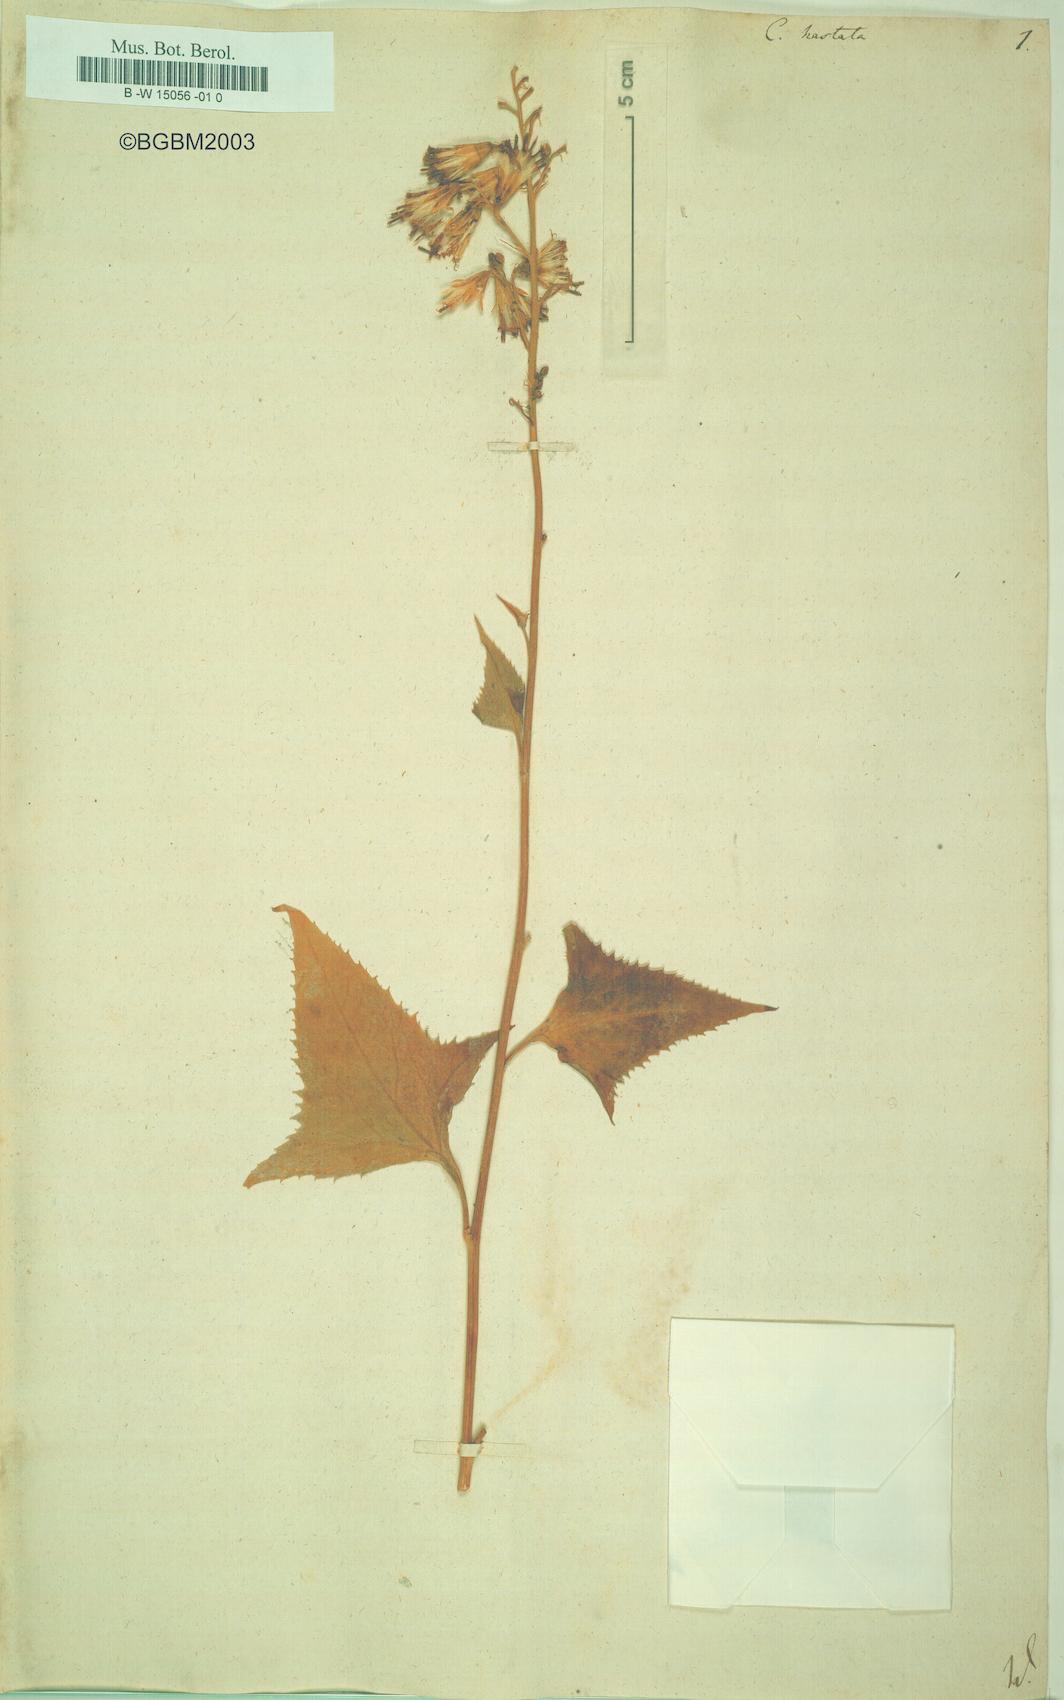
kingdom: Plantae
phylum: Tracheophyta
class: Magnoliopsida
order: Asterales
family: Asteraceae
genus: Parasenecio
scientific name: Parasenecio hastatus
